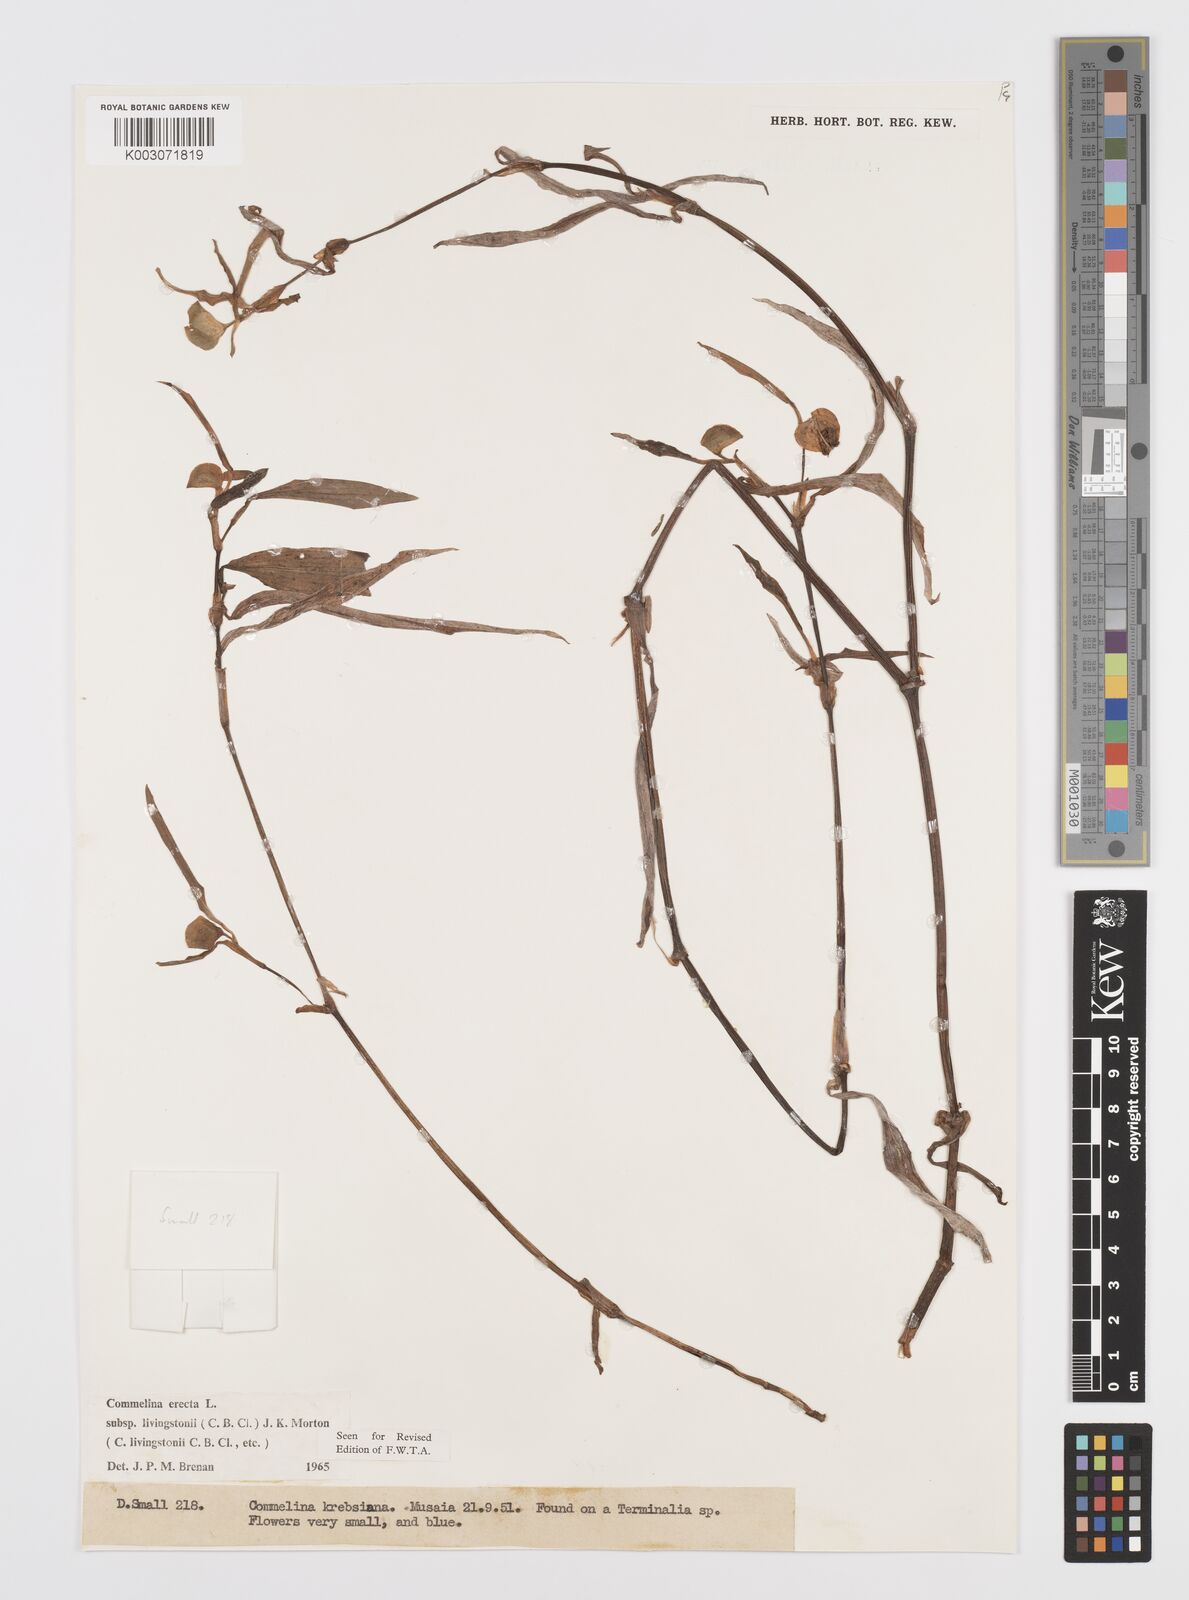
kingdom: Plantae
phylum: Tracheophyta
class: Liliopsida
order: Commelinales
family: Commelinaceae
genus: Commelina
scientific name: Commelina erecta
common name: Blousel blommetjie
